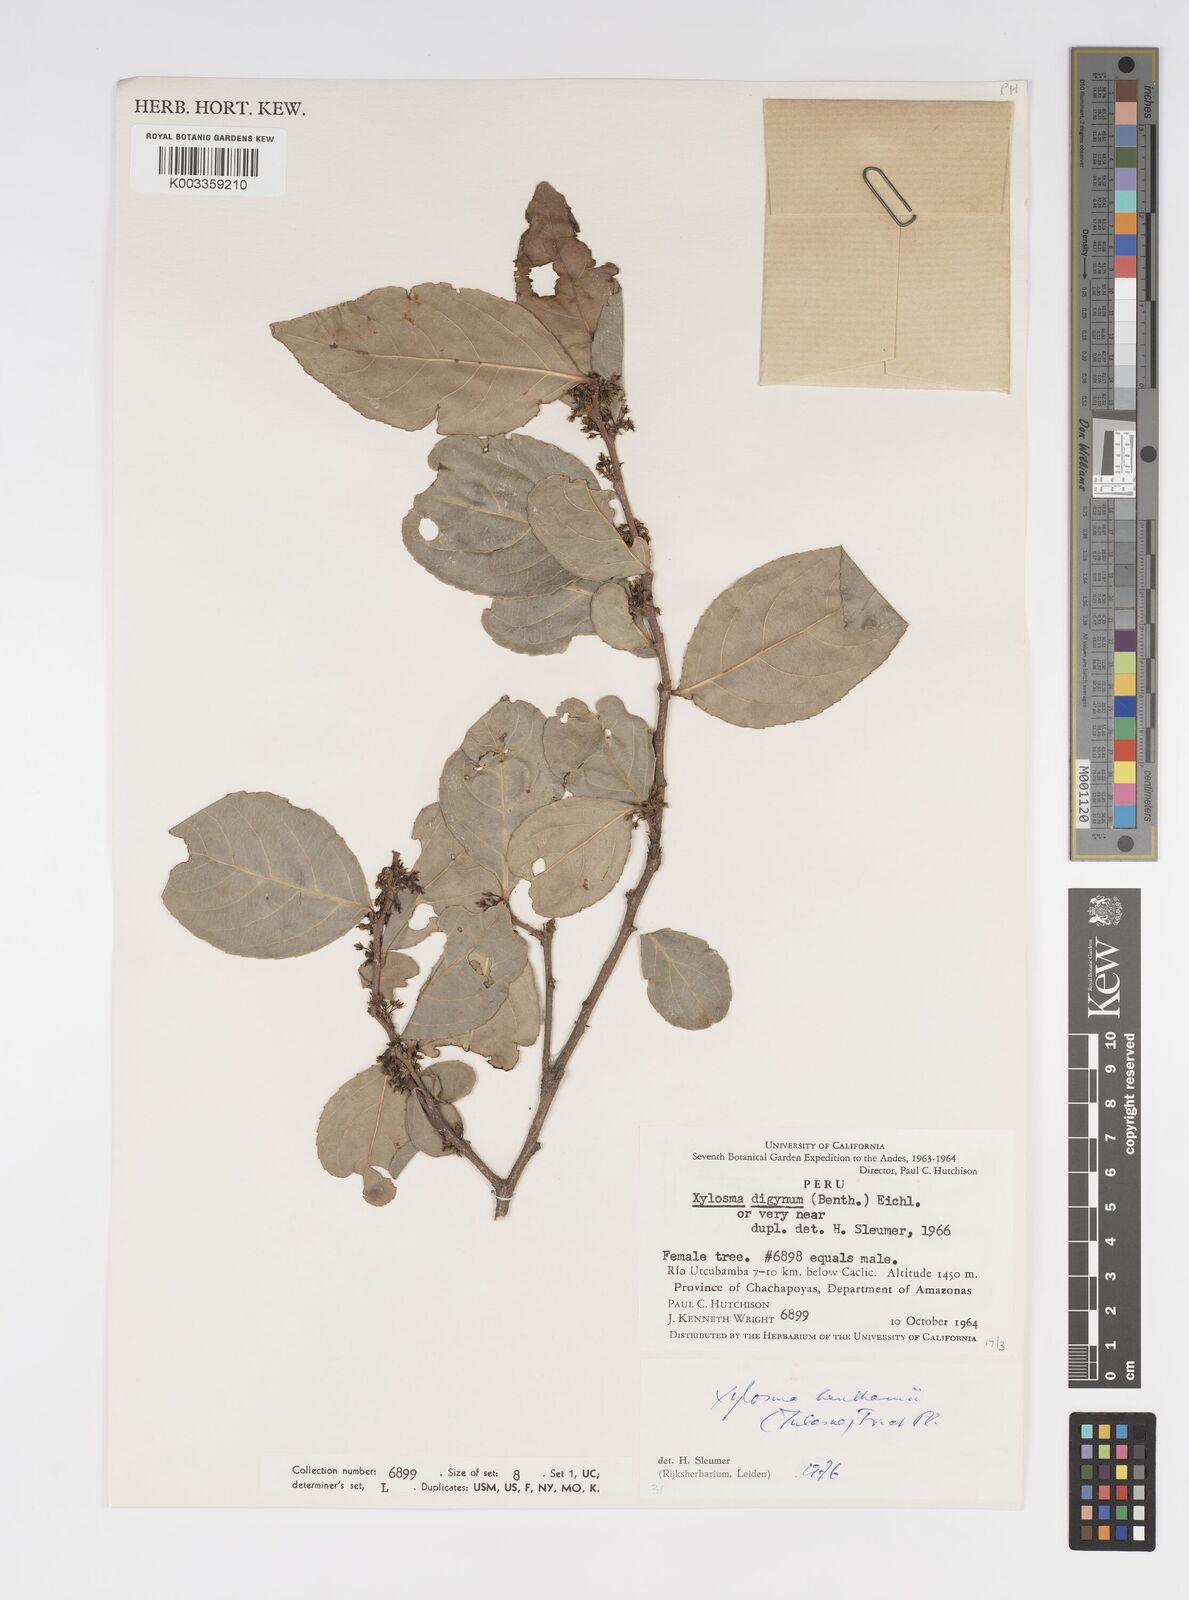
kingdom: Plantae
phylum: Tracheophyta
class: Magnoliopsida
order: Malpighiales
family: Salicaceae
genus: Xylosma
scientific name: Xylosma benthamii
